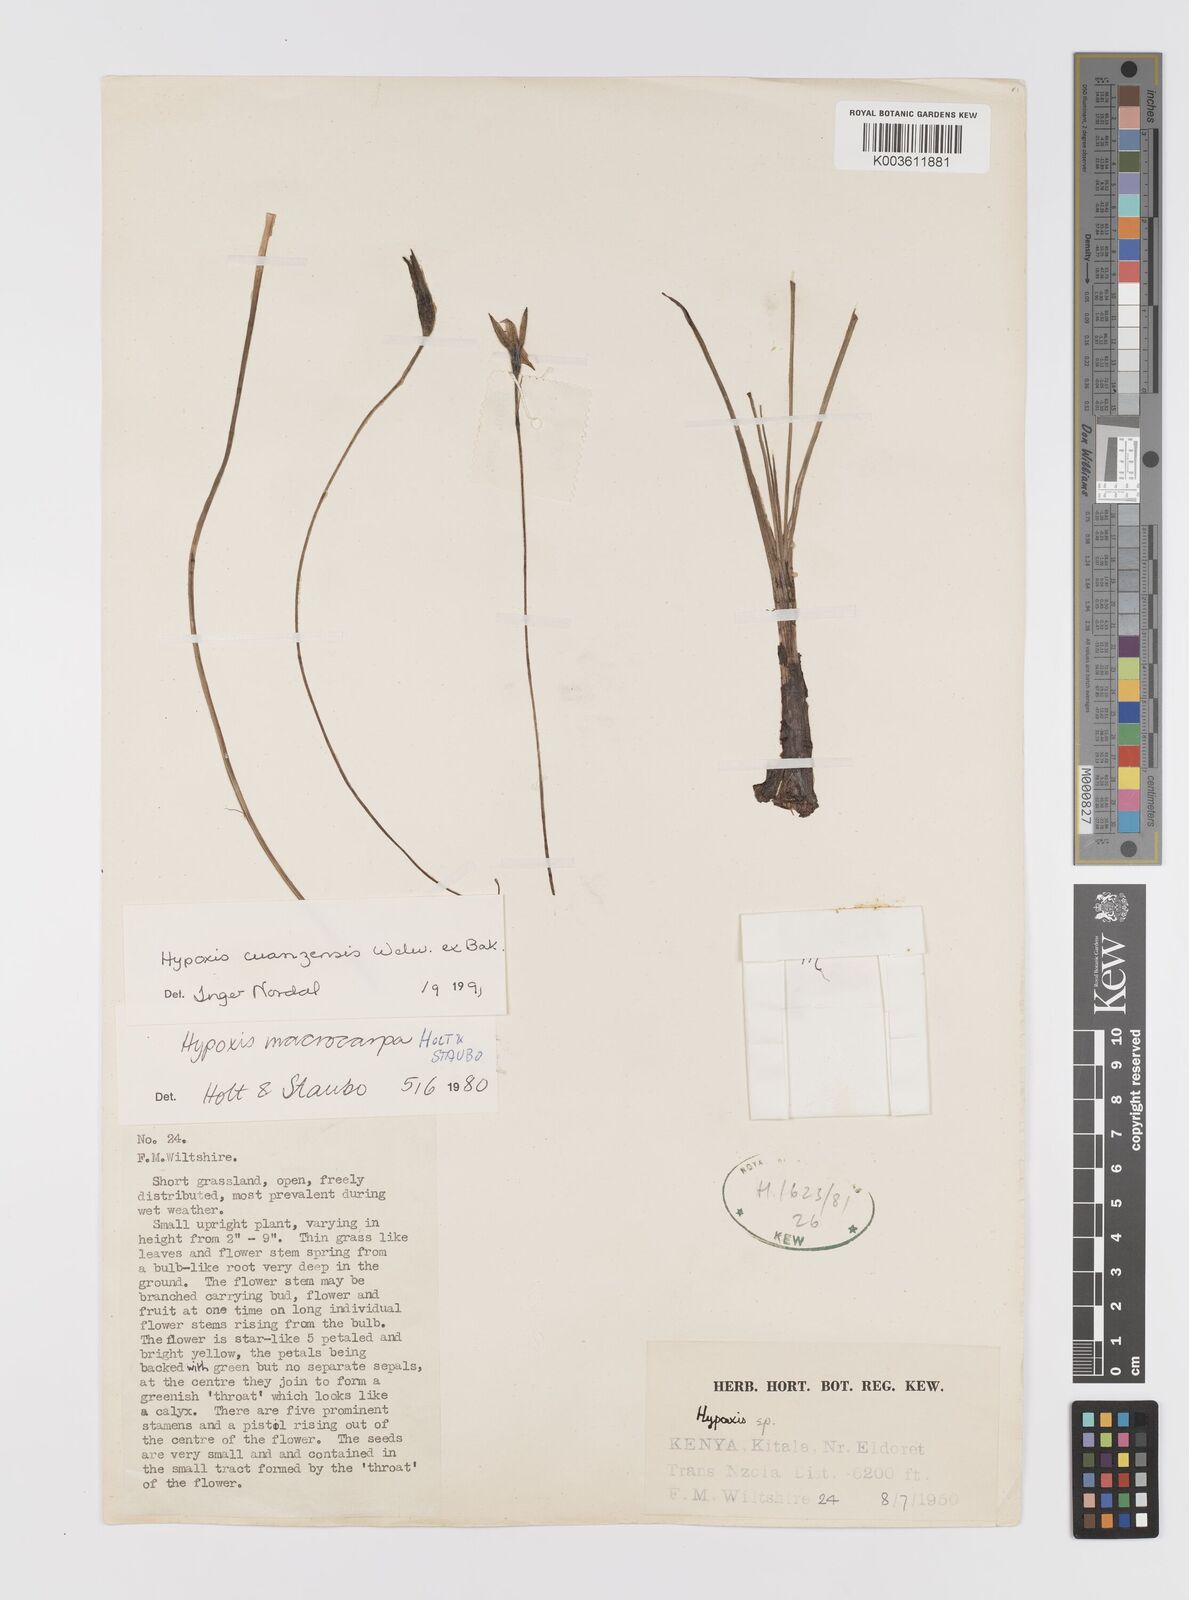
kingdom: Plantae
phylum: Tracheophyta
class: Liliopsida
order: Asparagales
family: Hypoxidaceae
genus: Hypoxis
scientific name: Hypoxis schimperi
